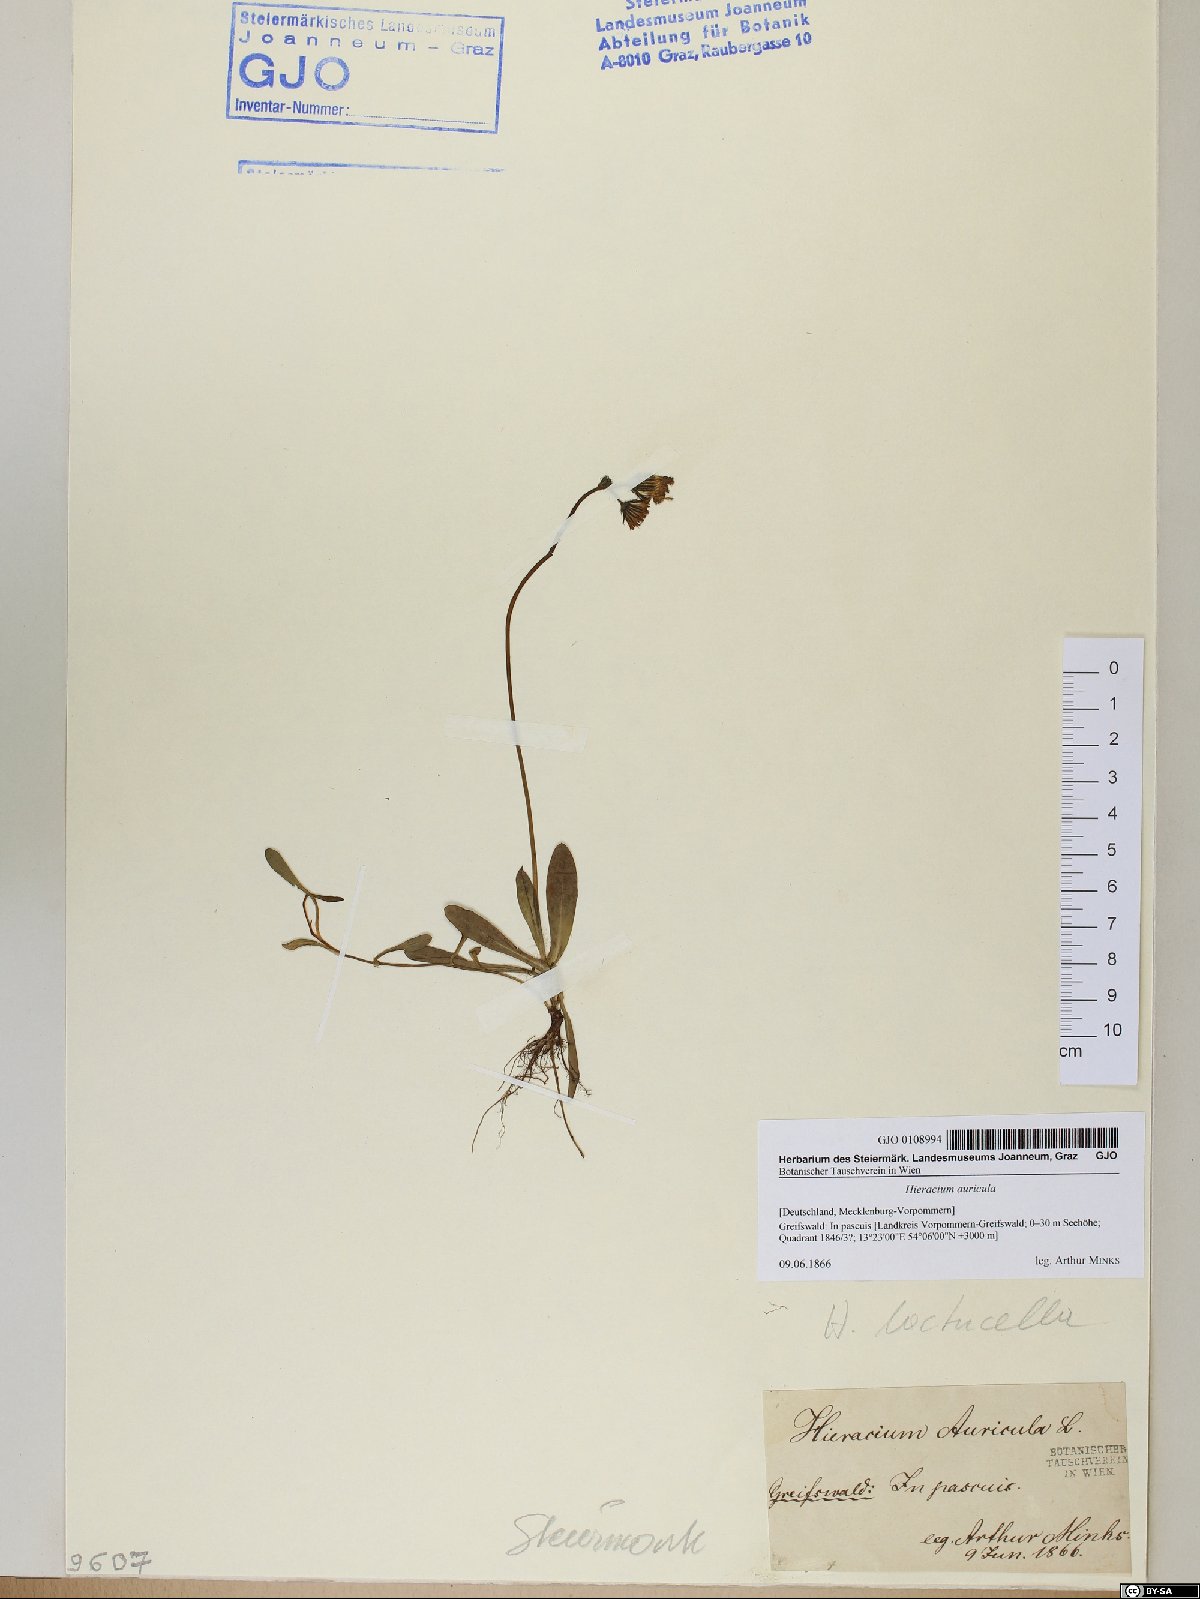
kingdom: Plantae
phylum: Tracheophyta
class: Magnoliopsida
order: Asterales
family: Asteraceae
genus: Hieracium
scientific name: Hieracium auricula
